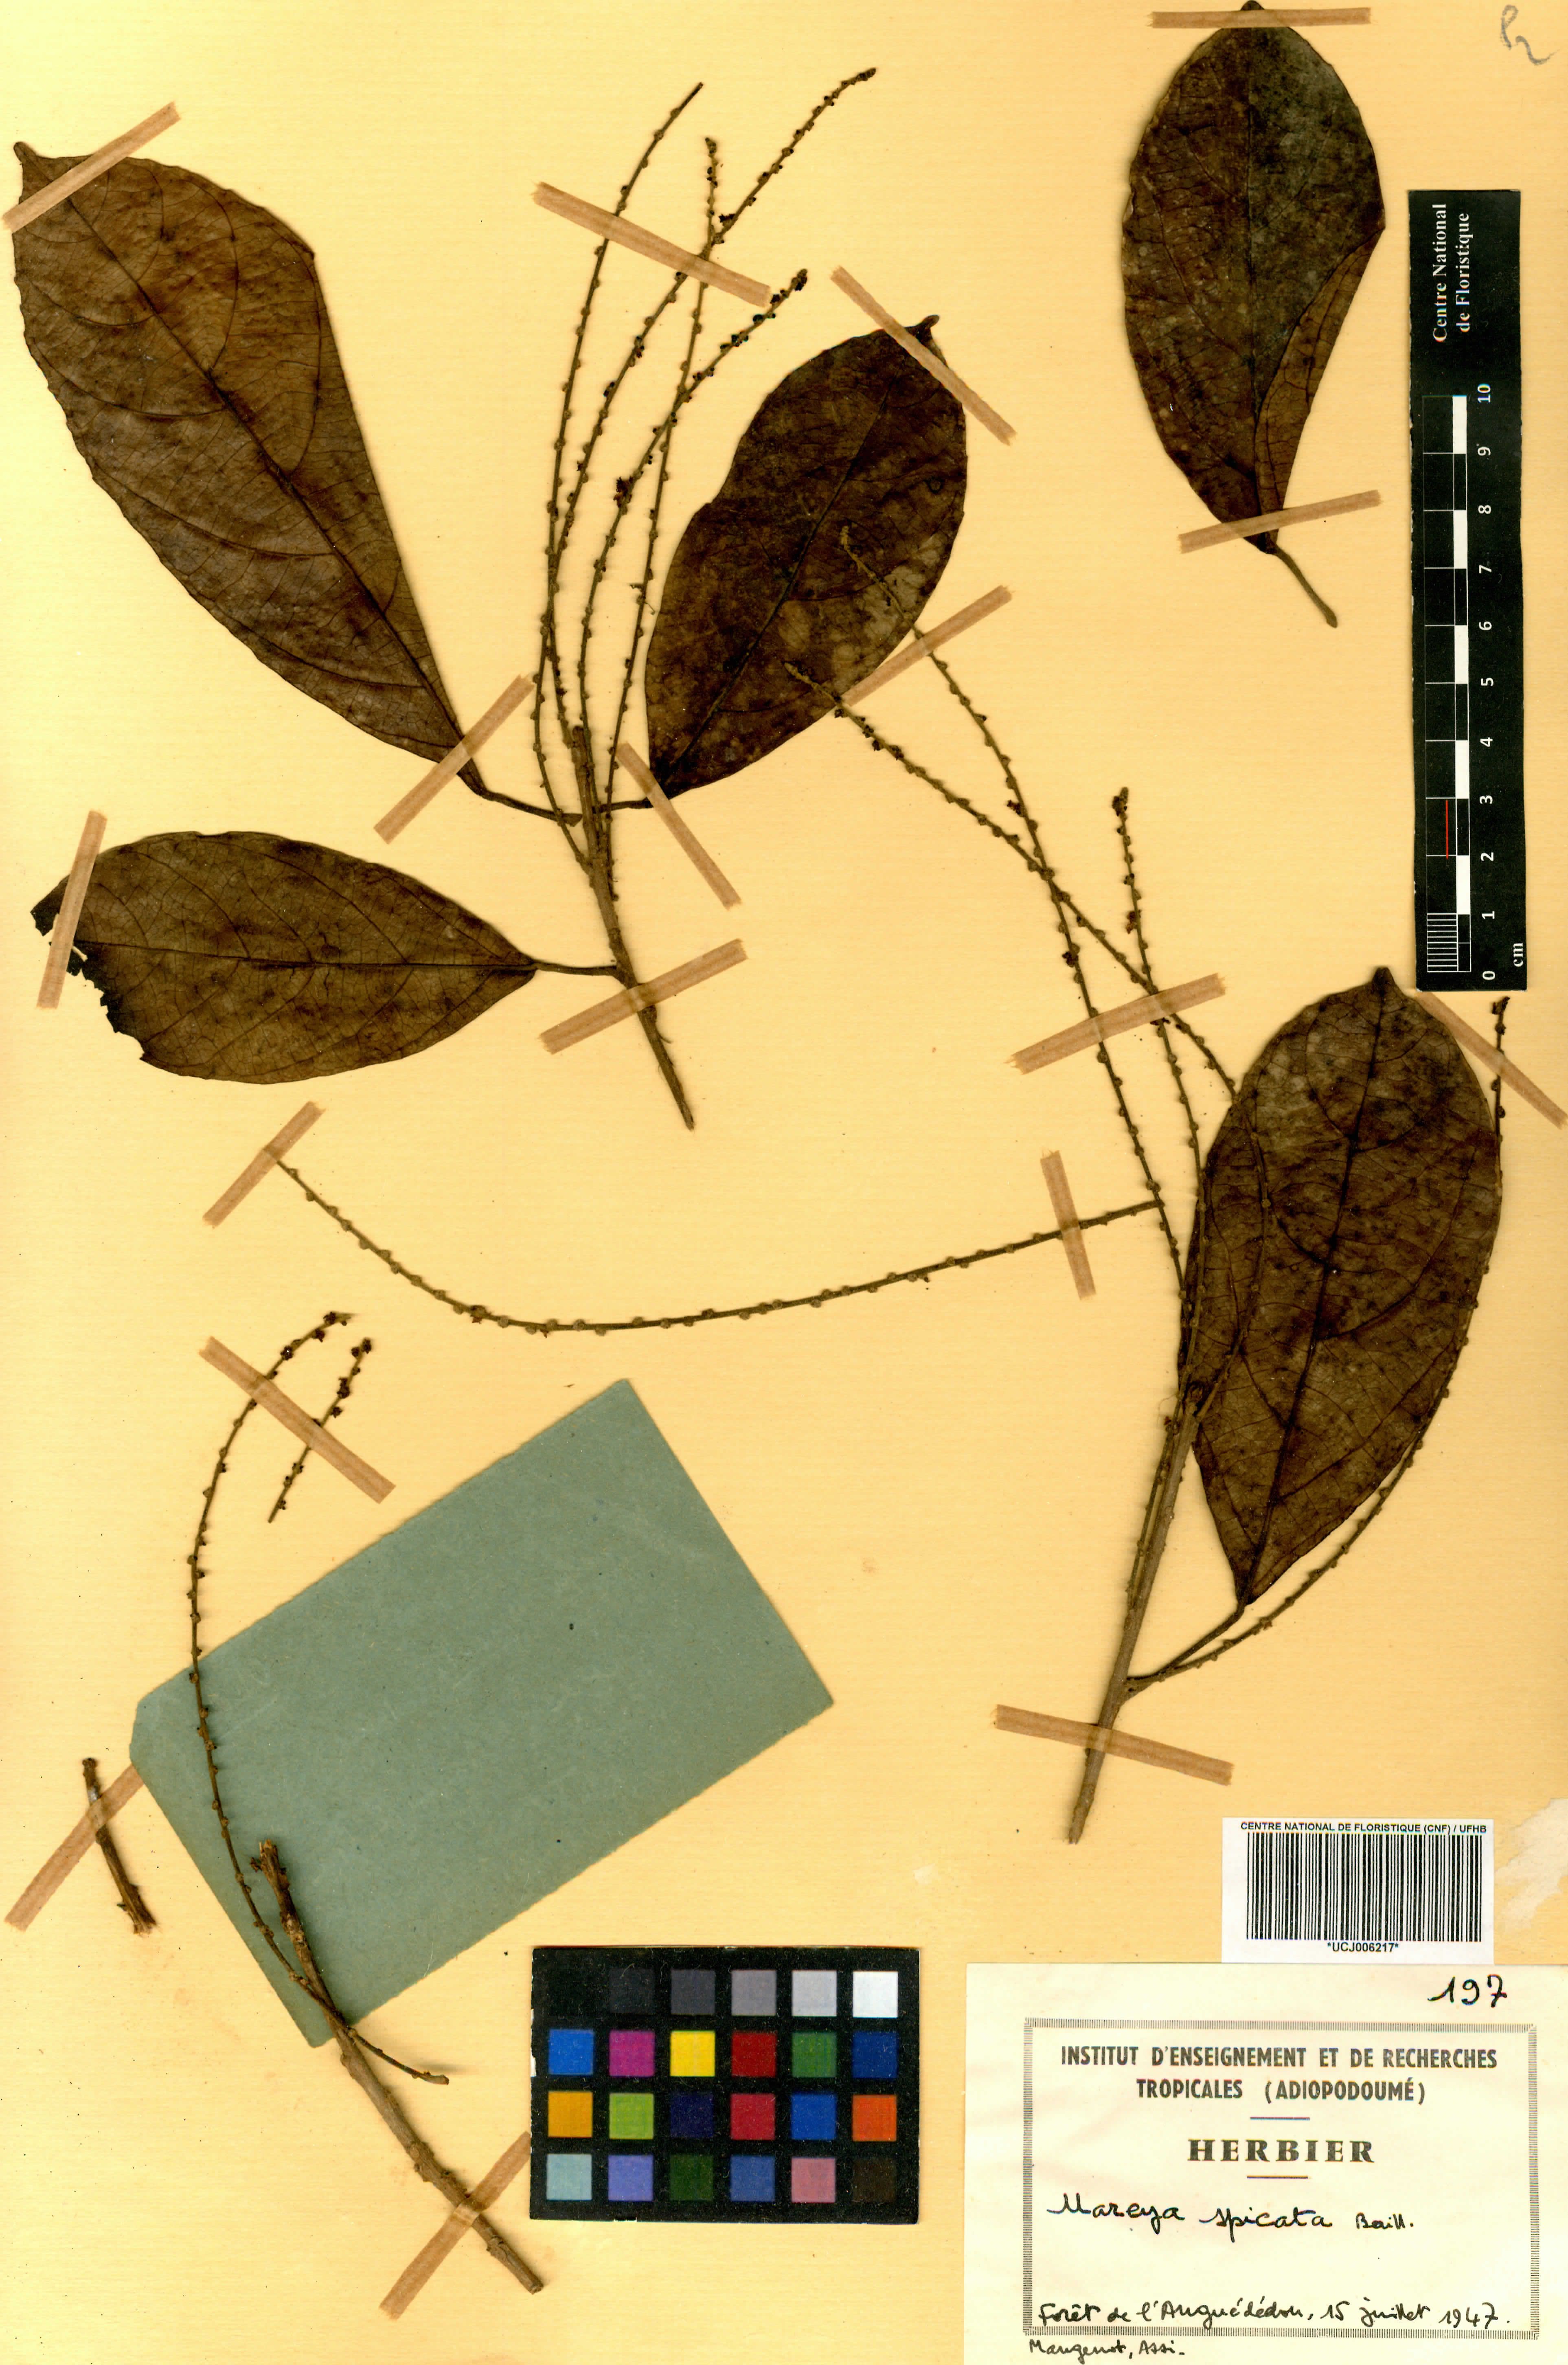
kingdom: Plantae
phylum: Tracheophyta
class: Magnoliopsida
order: Malpighiales
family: Euphorbiaceae
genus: Mareya
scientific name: Mareya micrantha
